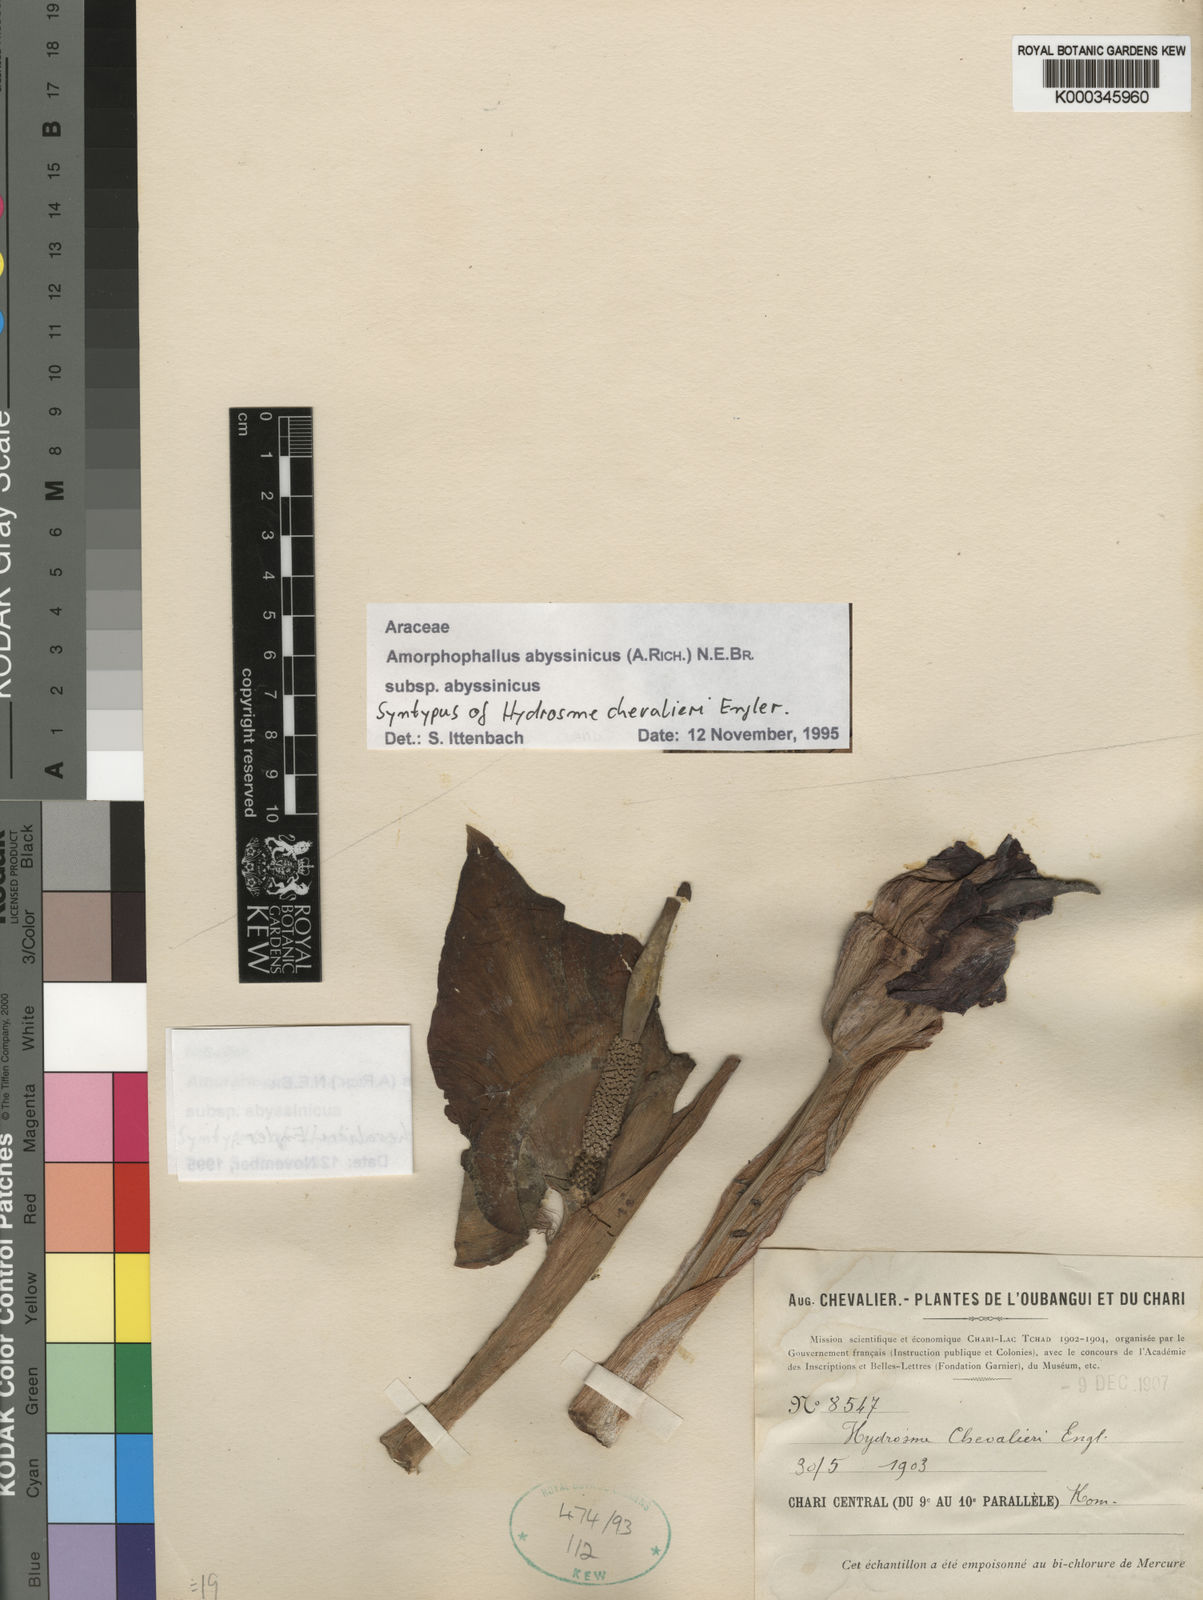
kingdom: Plantae
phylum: Tracheophyta
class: Liliopsida
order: Alismatales
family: Araceae
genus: Amorphophallus
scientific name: Amorphophallus abyssinicus
